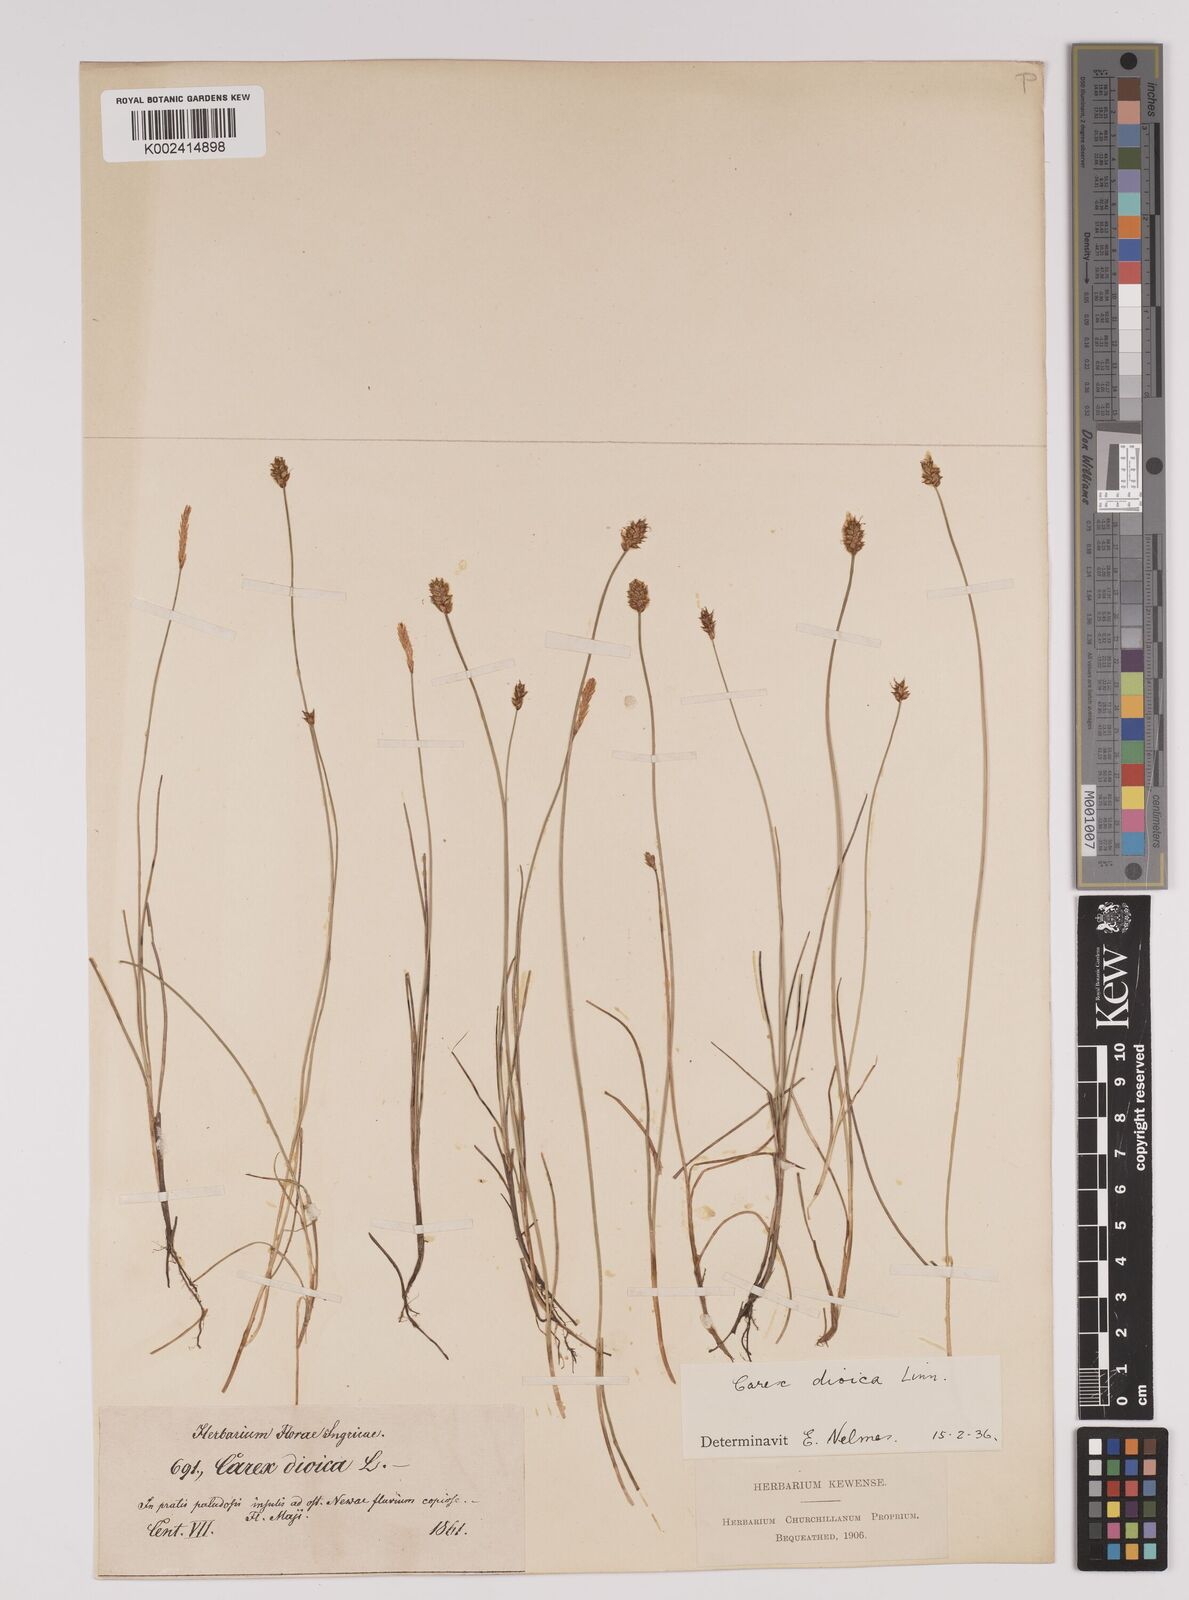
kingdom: Plantae
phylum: Tracheophyta
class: Liliopsida
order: Poales
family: Cyperaceae
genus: Carex
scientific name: Carex dioica
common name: Dioecious sedge
